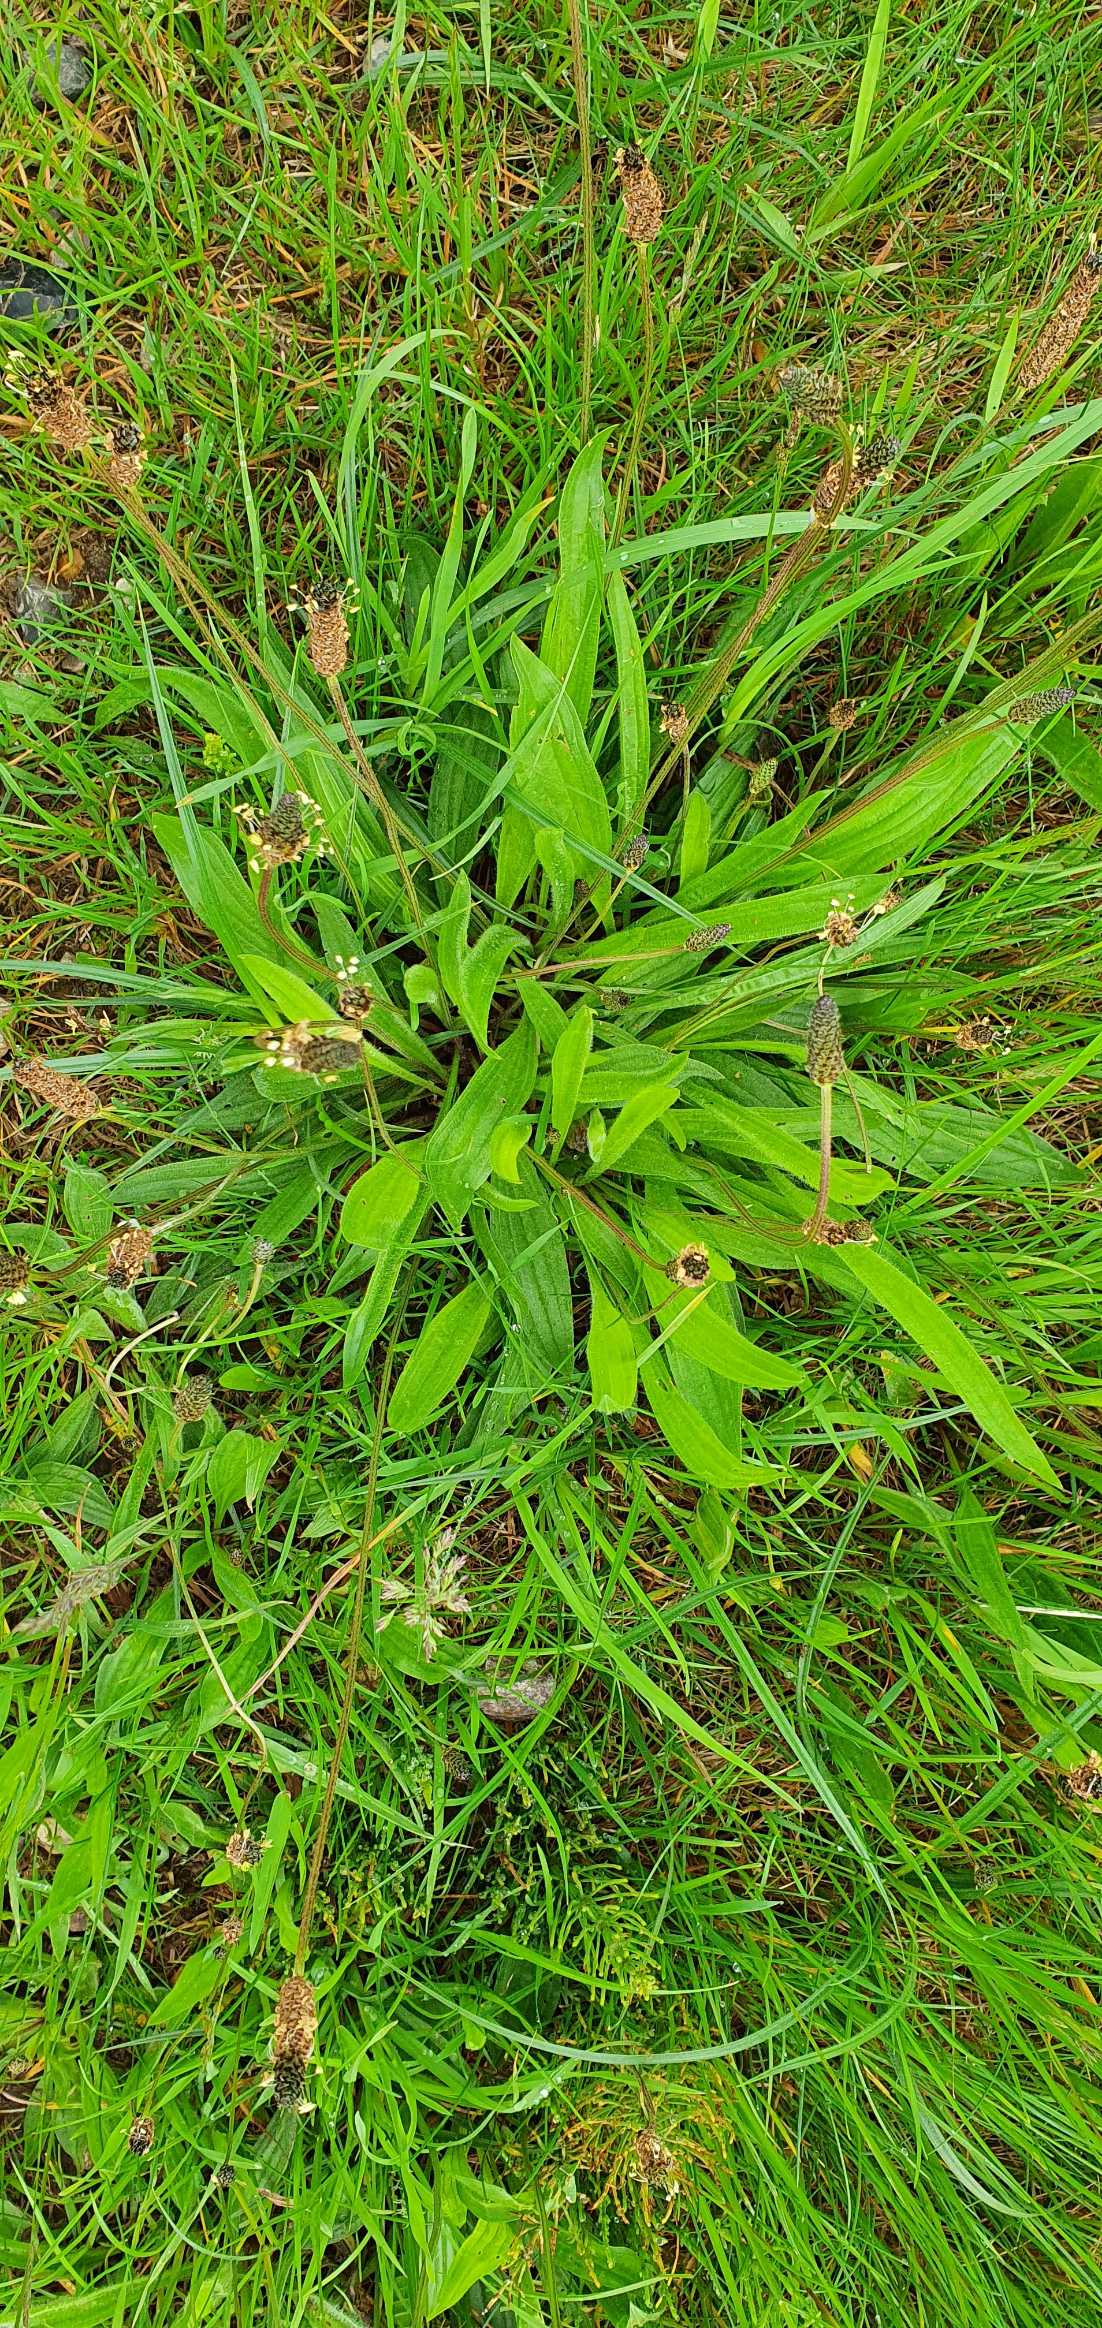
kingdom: Plantae
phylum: Tracheophyta
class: Magnoliopsida
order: Lamiales
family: Plantaginaceae
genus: Plantago
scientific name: Plantago lanceolata
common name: Lancet-vejbred
